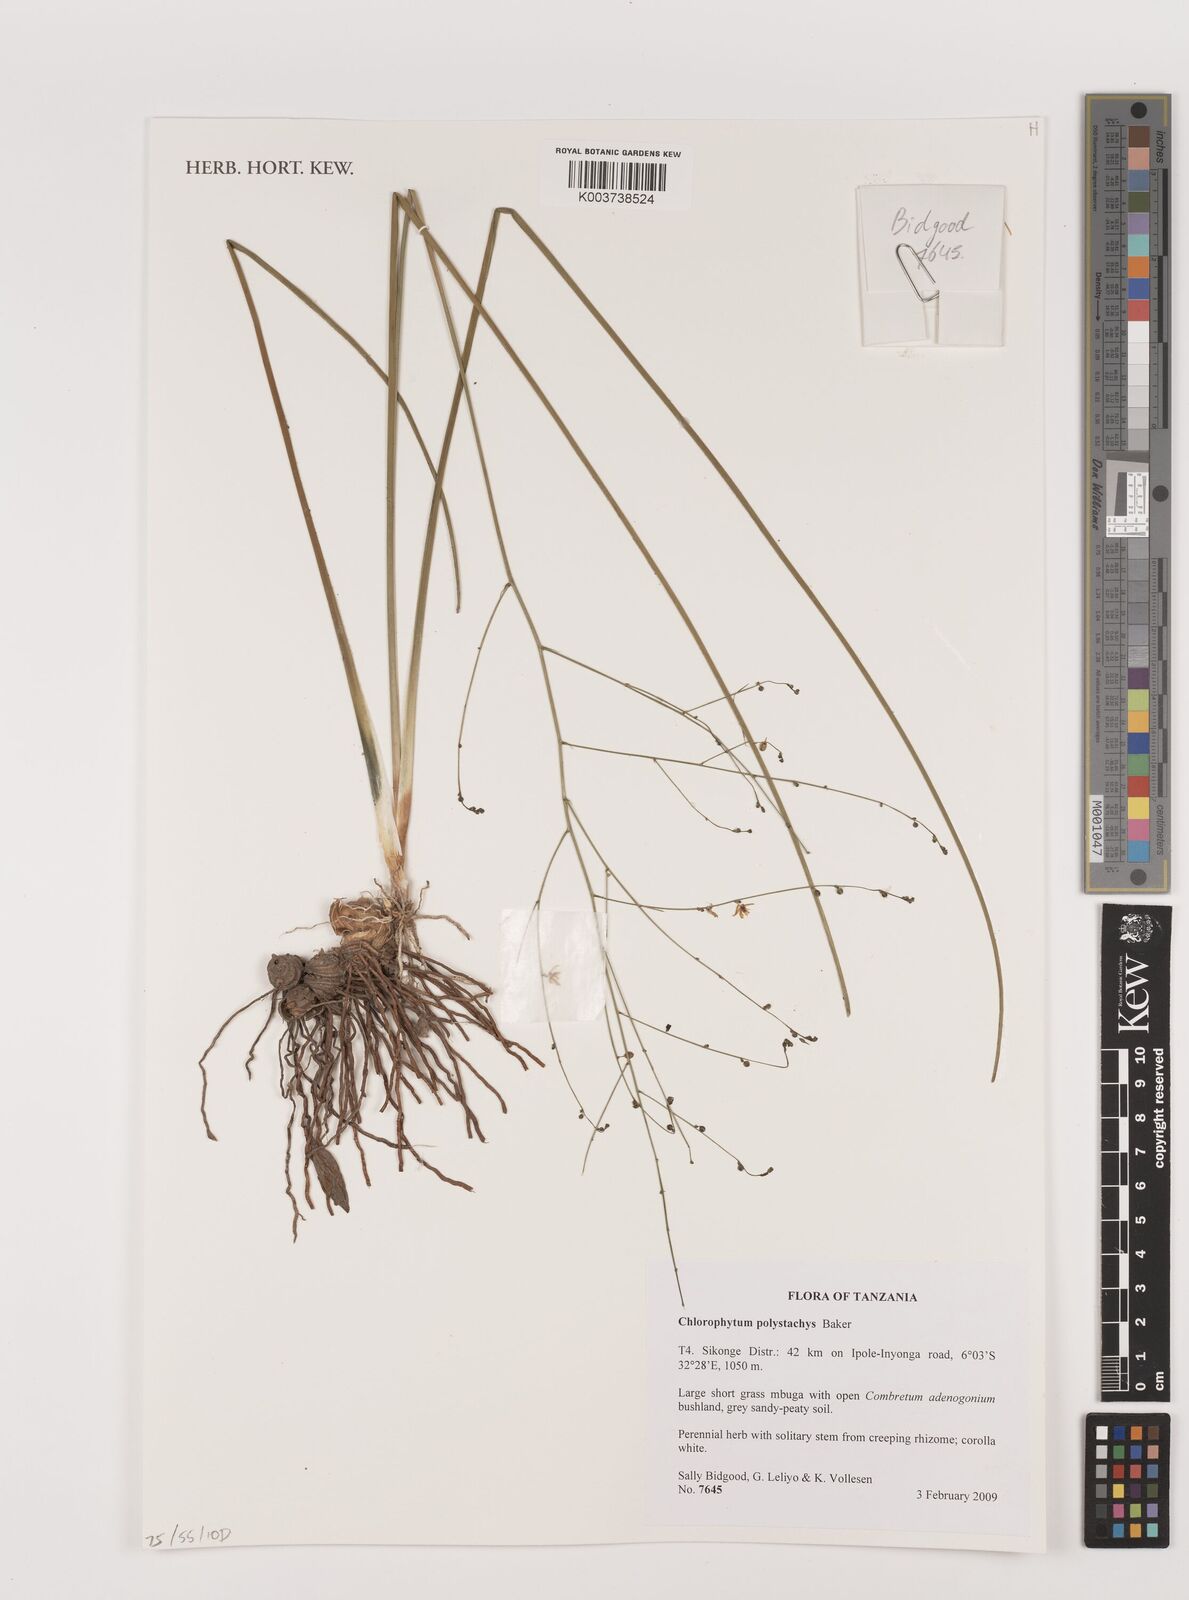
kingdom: Plantae
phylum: Tracheophyta
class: Liliopsida
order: Asparagales
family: Asparagaceae
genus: Chlorophytum
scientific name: Chlorophytum polystachys
